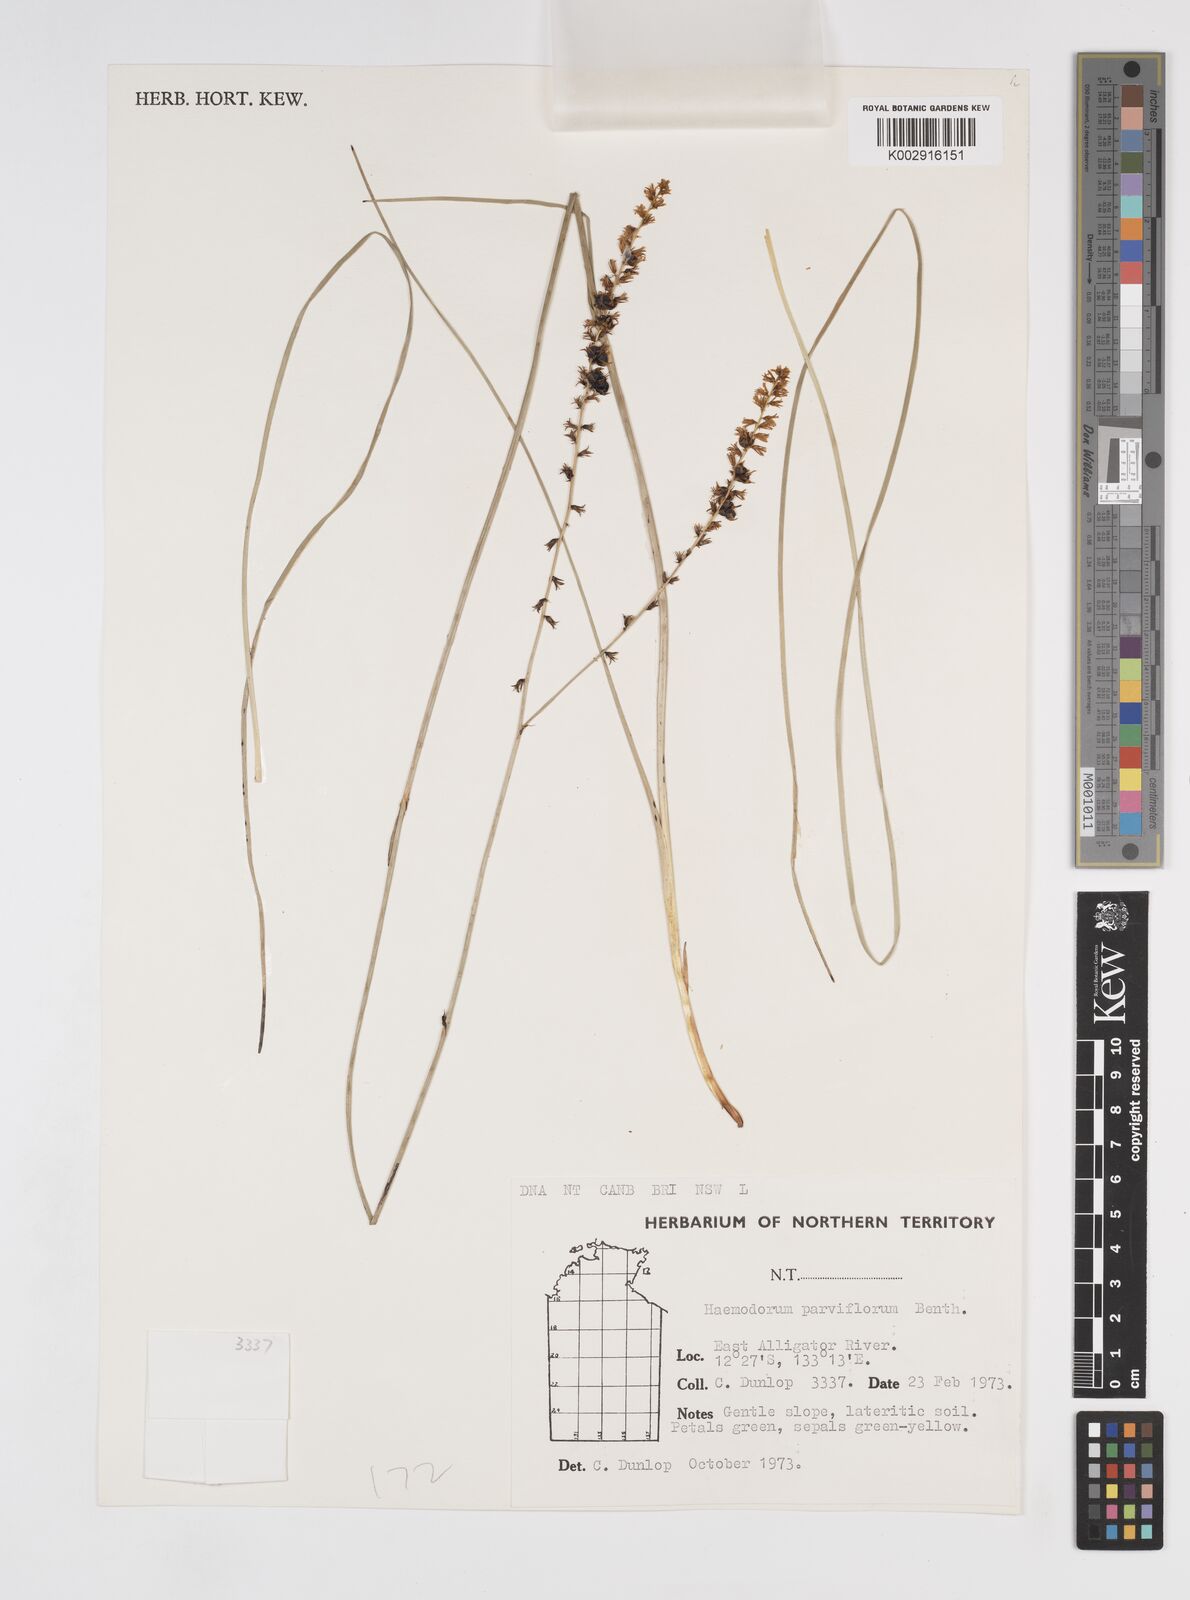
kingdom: Plantae
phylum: Tracheophyta
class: Liliopsida
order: Commelinales
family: Haemodoraceae
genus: Haemodorum
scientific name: Haemodorum parviflorum
